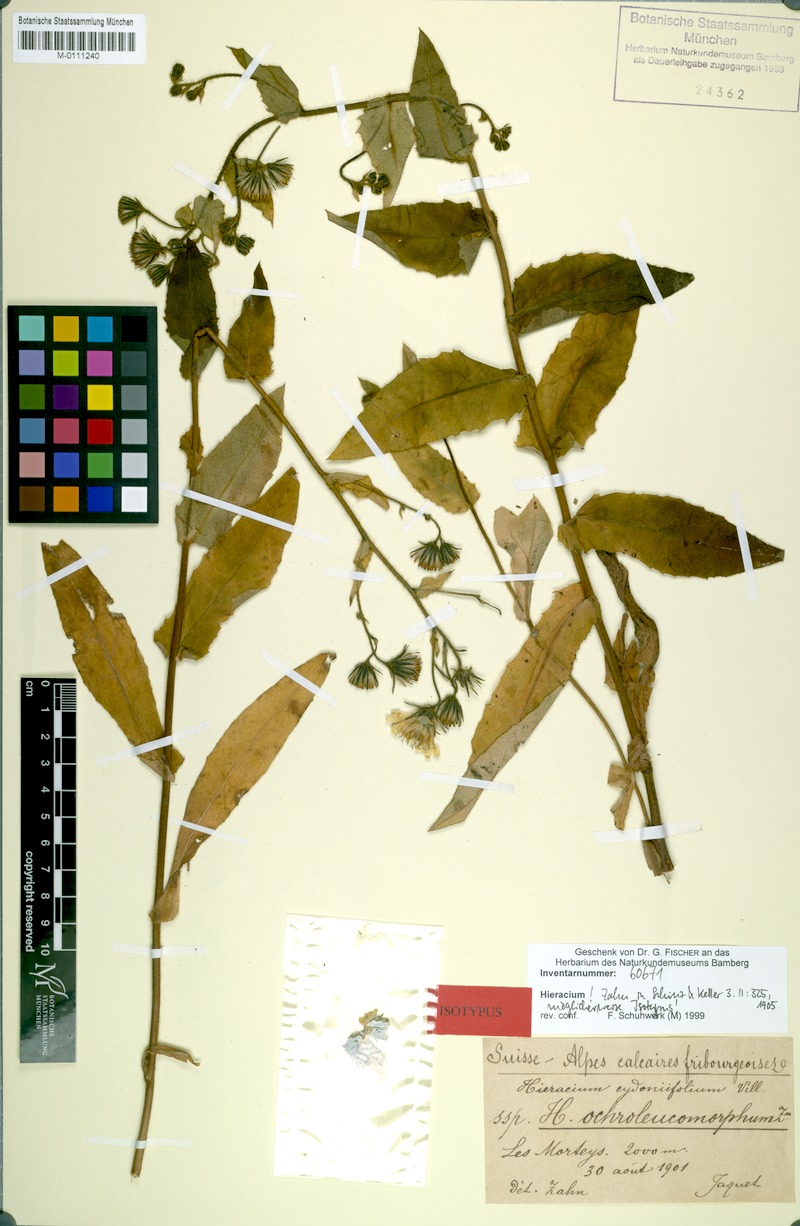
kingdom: Plantae
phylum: Tracheophyta
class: Magnoliopsida
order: Asterales
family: Asteraceae
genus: Hieracium
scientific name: Hieracium cydoniifolium
